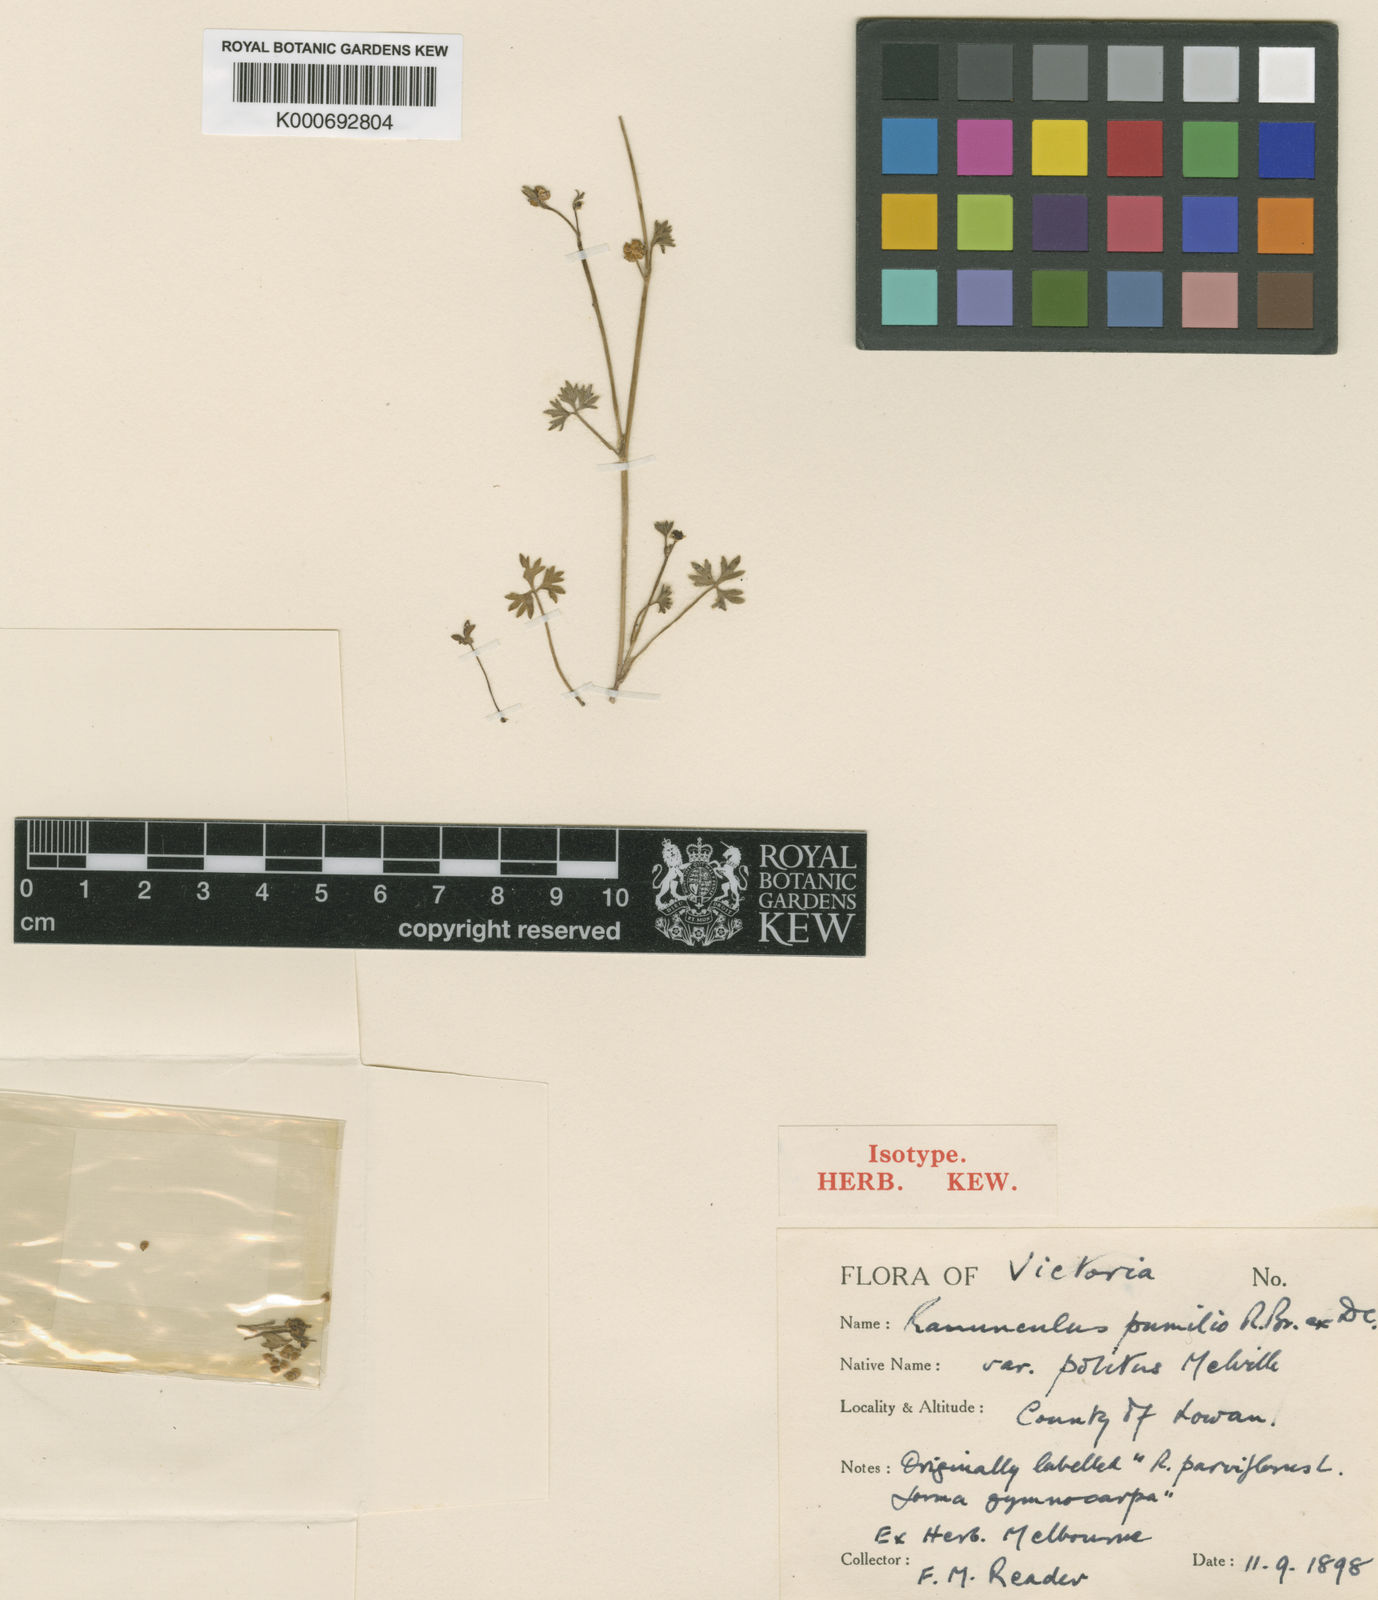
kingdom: Plantae
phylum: Tracheophyta
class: Magnoliopsida
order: Ranunculales
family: Ranunculaceae
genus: Ranunculus
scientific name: Ranunculus pumilio
